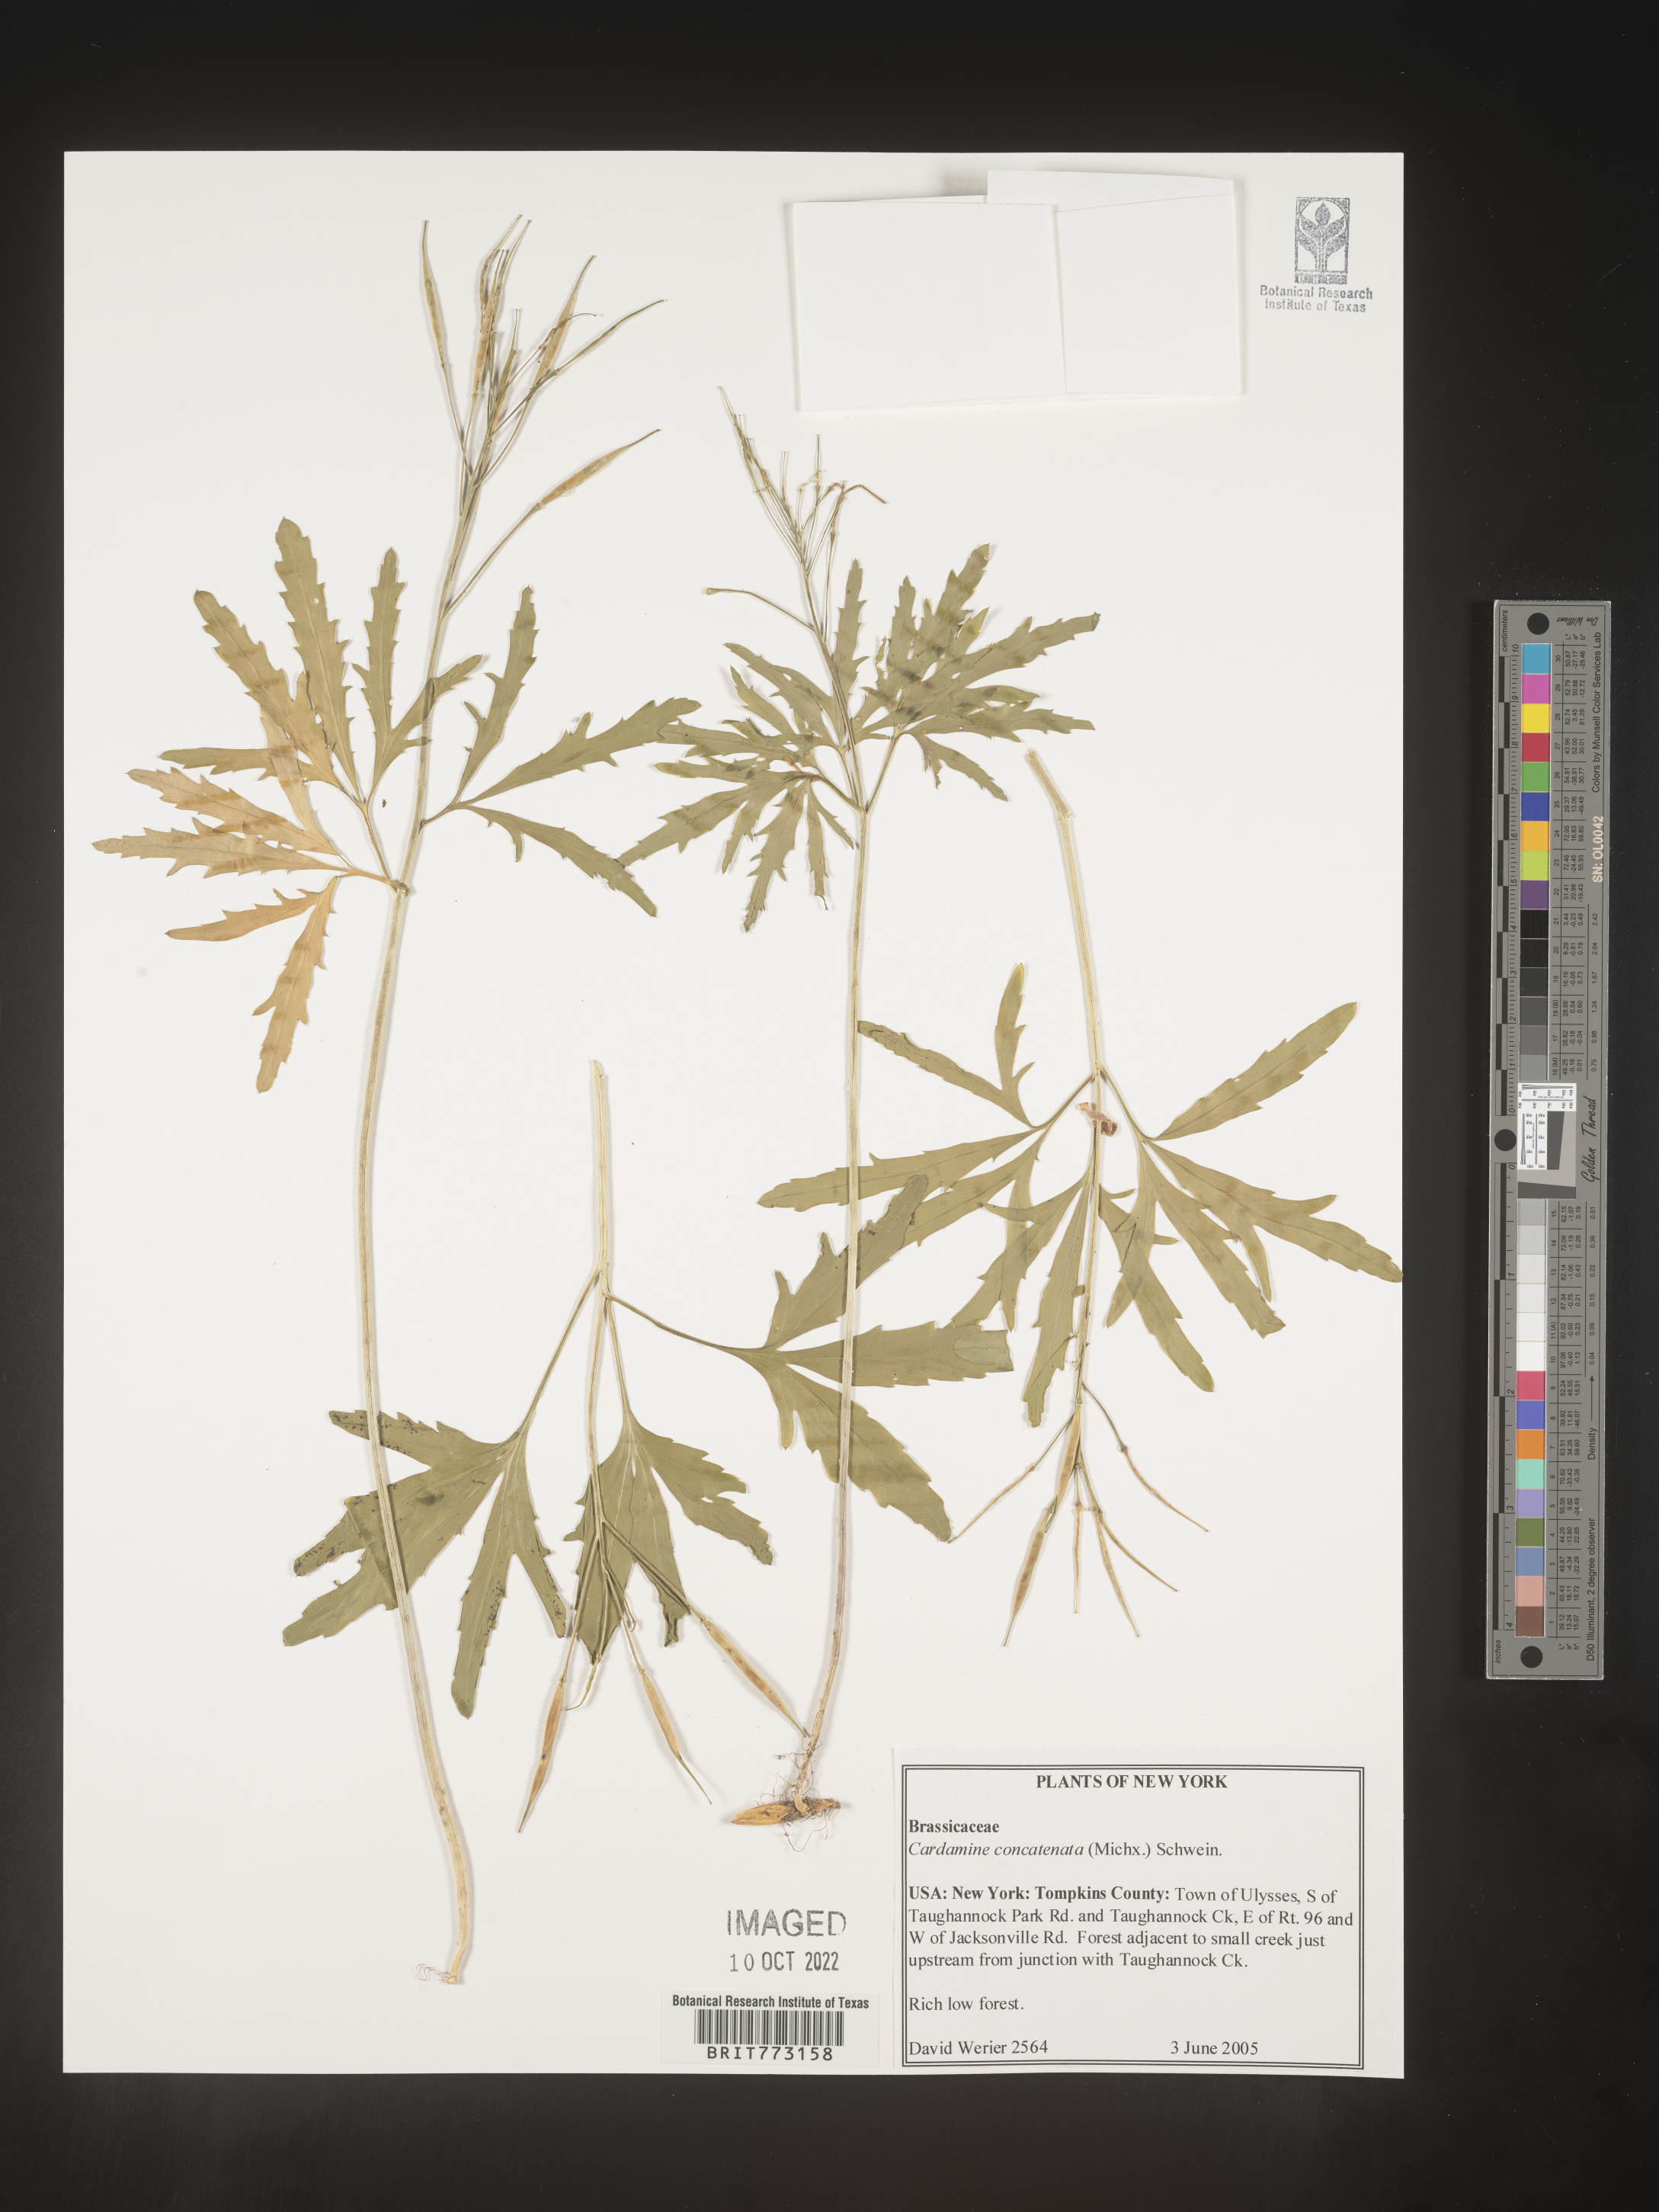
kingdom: Plantae
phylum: Tracheophyta
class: Magnoliopsida
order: Brassicales
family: Brassicaceae
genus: Cardamine
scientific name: Cardamine
